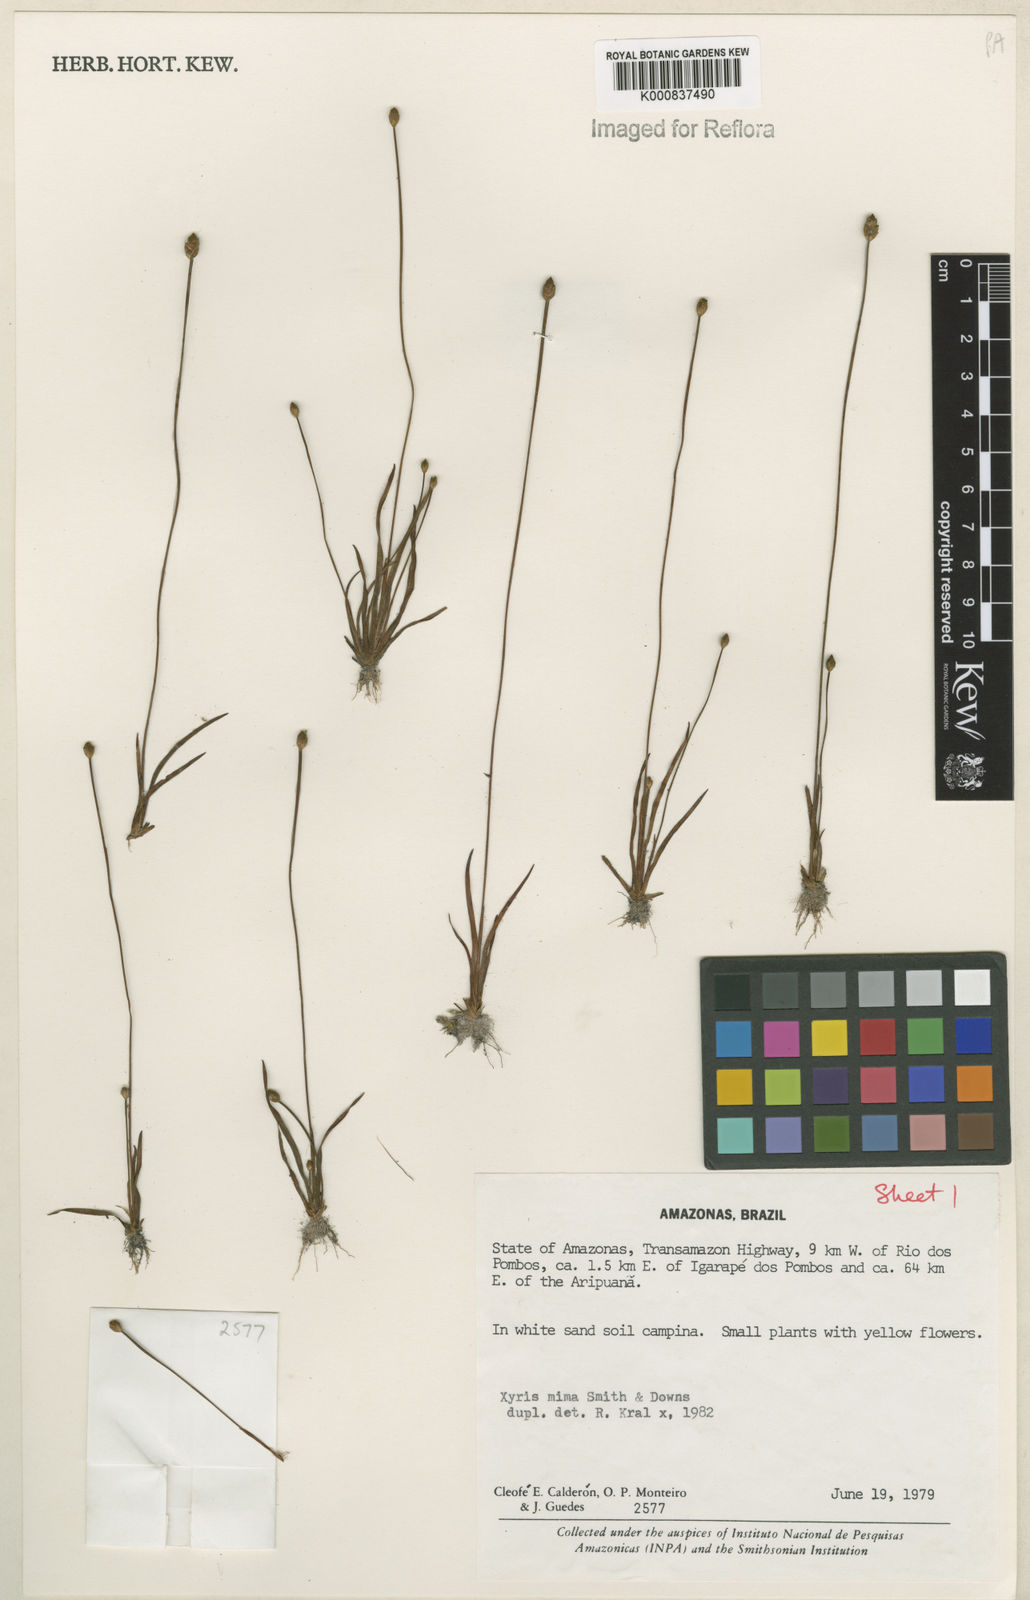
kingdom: Plantae
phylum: Tracheophyta
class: Liliopsida
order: Poales
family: Xyridaceae
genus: Xyris
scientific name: Xyris mima
